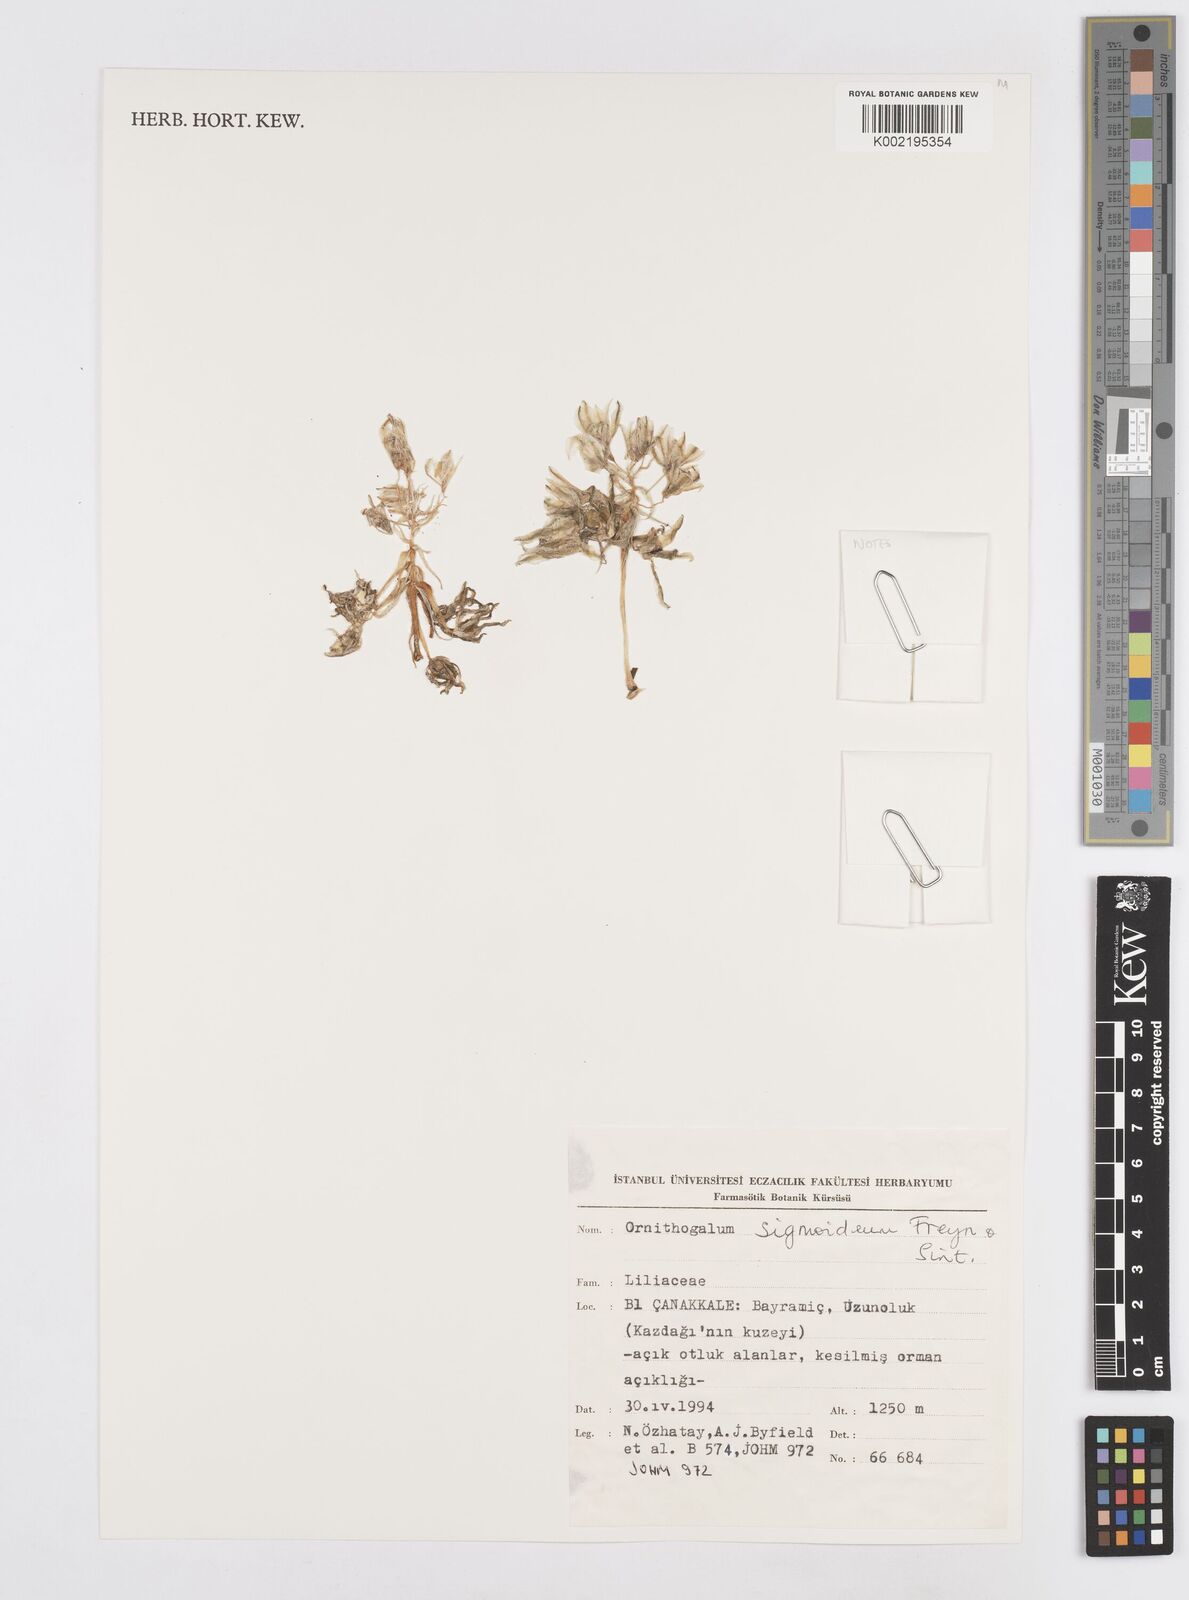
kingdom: Plantae
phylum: Tracheophyta
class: Liliopsida
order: Asparagales
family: Asparagaceae
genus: Ornithogalum
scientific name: Ornithogalum sigmoideum
